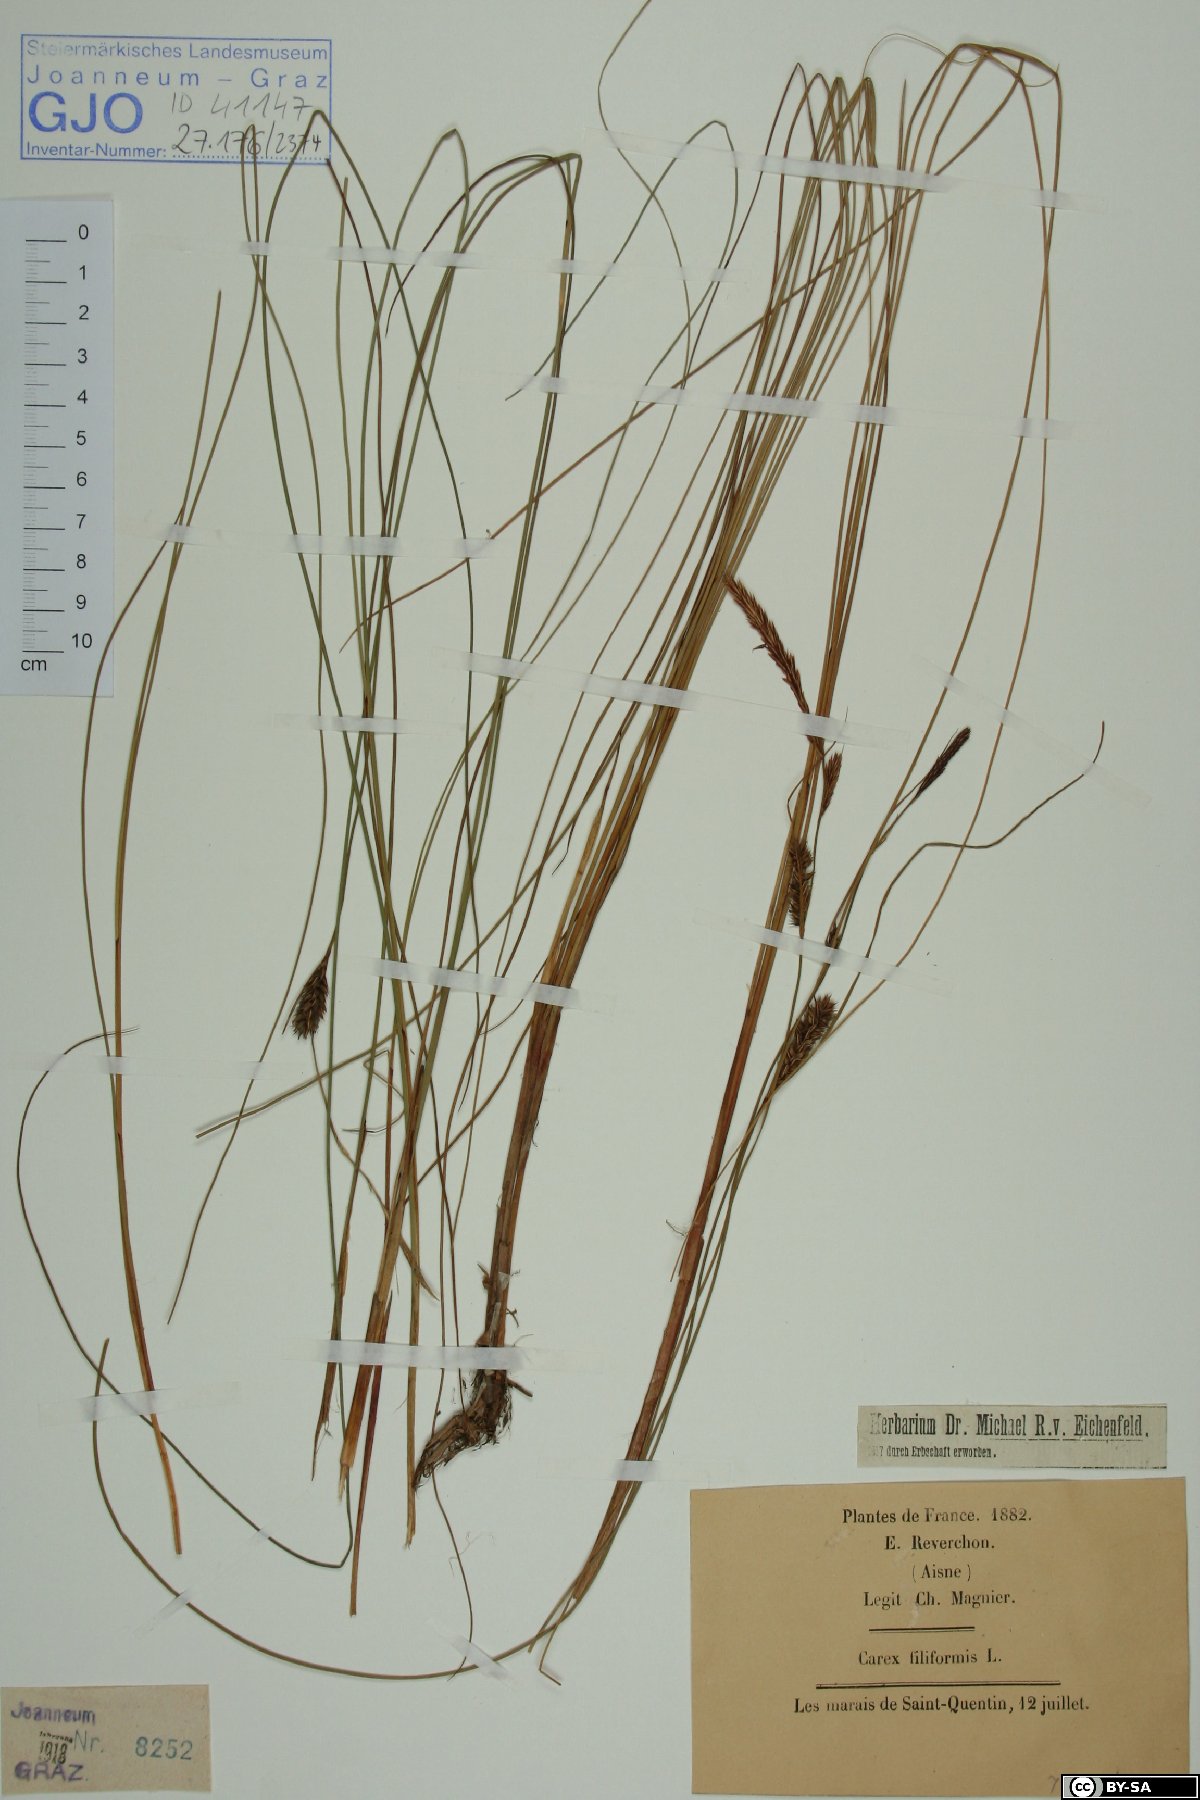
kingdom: Plantae
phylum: Tracheophyta
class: Liliopsida
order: Poales
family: Cyperaceae
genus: Carex
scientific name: Carex montana
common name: Soft-leaved sedge
